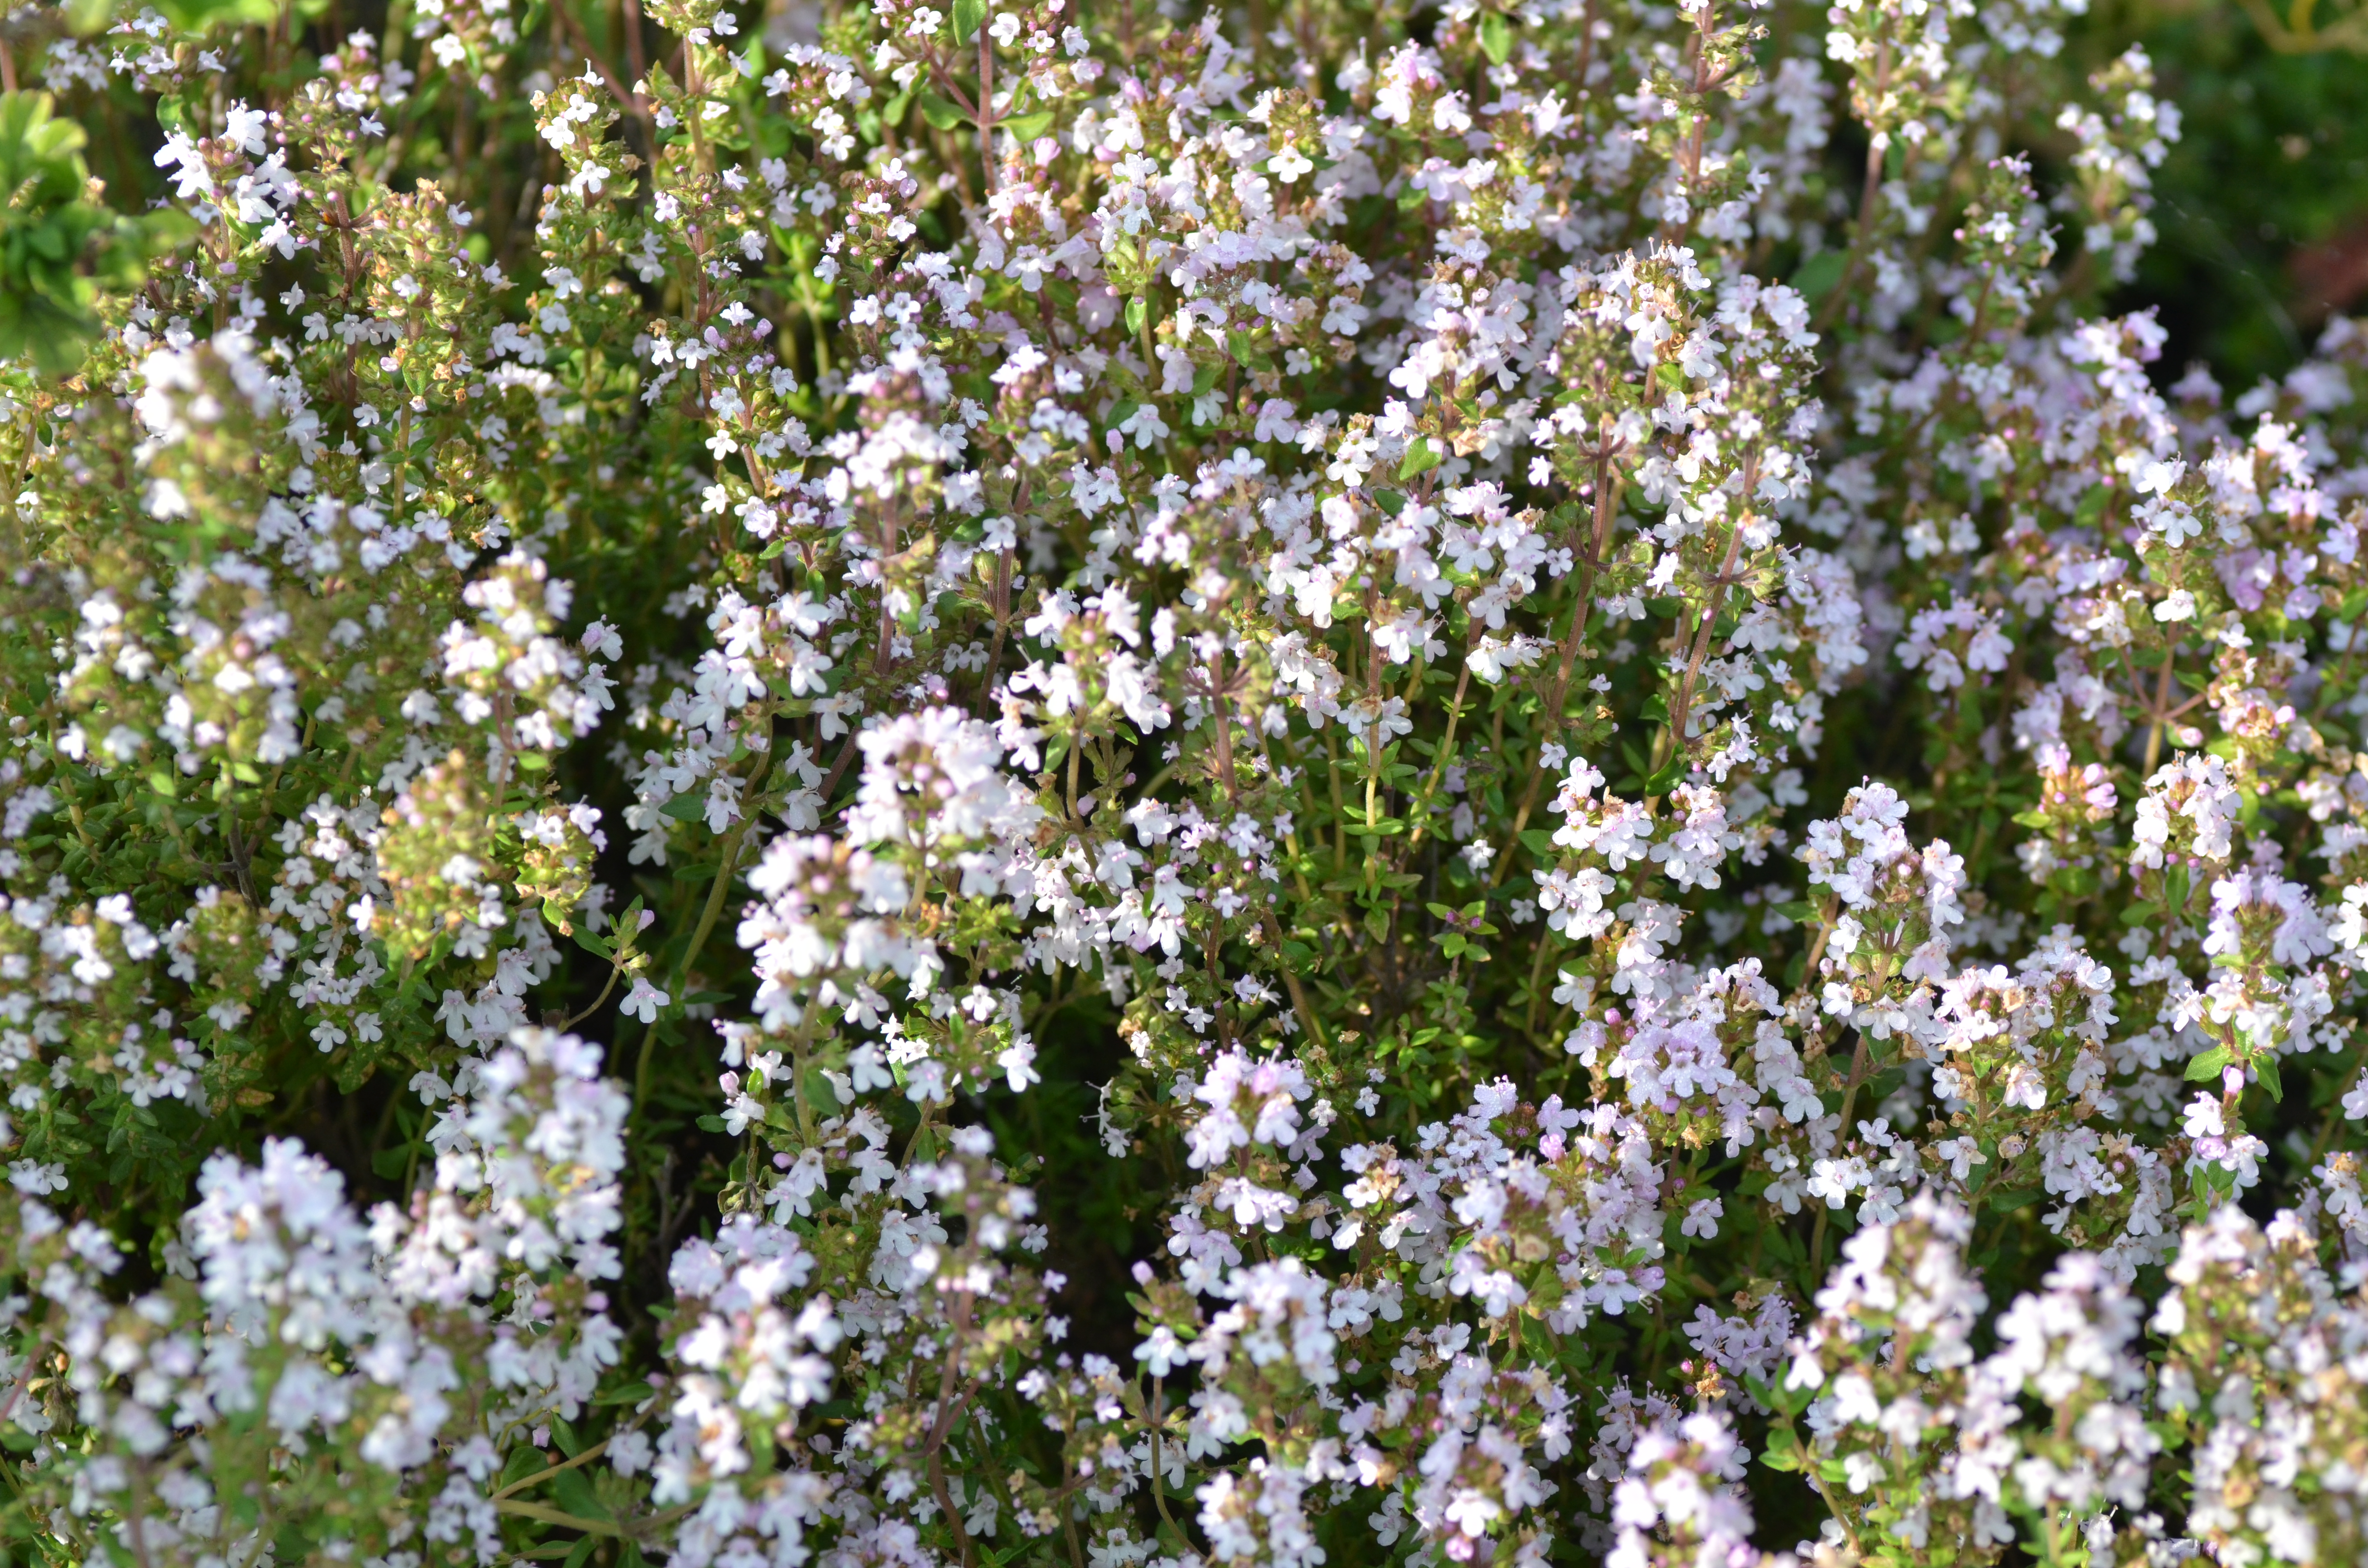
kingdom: Plantae
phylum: Tracheophyta
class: Magnoliopsida
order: Lamiales
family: Lamiaceae
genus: Thymus
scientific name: Thymus pulegioides
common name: Large thyme
